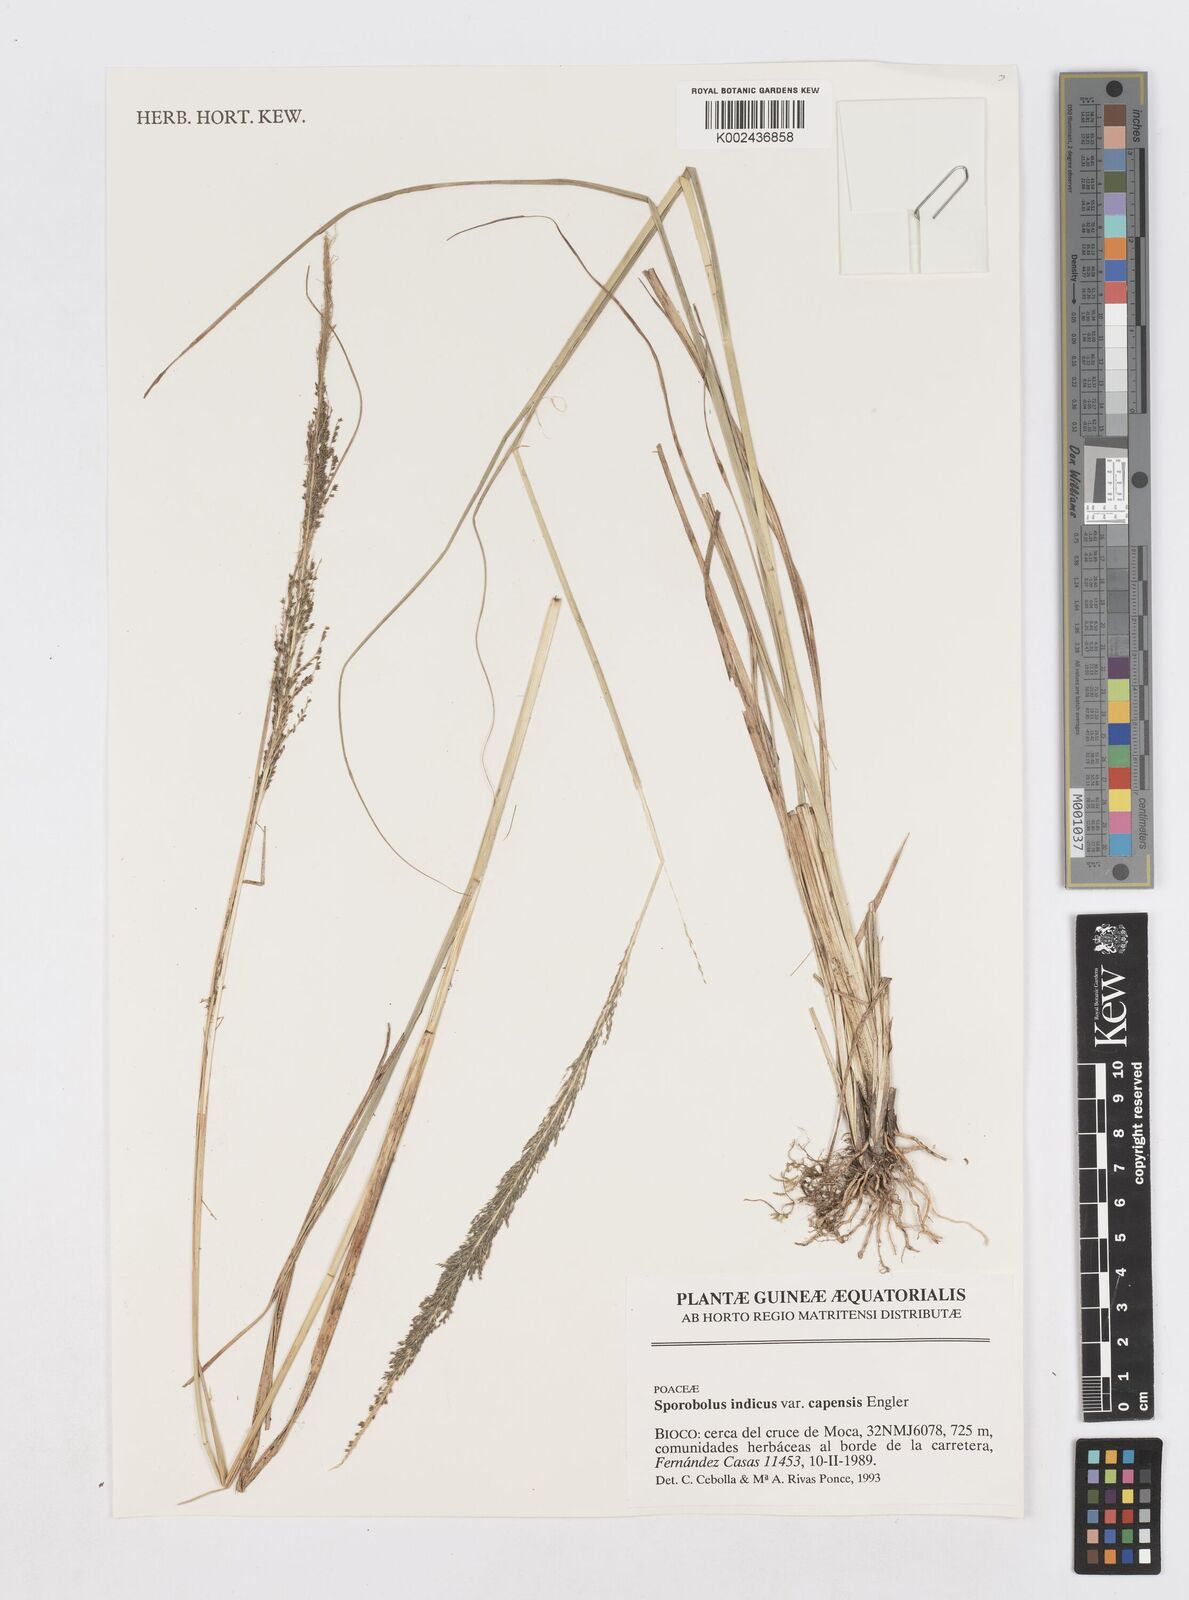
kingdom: Plantae
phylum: Tracheophyta
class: Liliopsida
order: Poales
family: Poaceae
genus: Sporobolus
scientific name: Sporobolus africanus
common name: African dropseed
